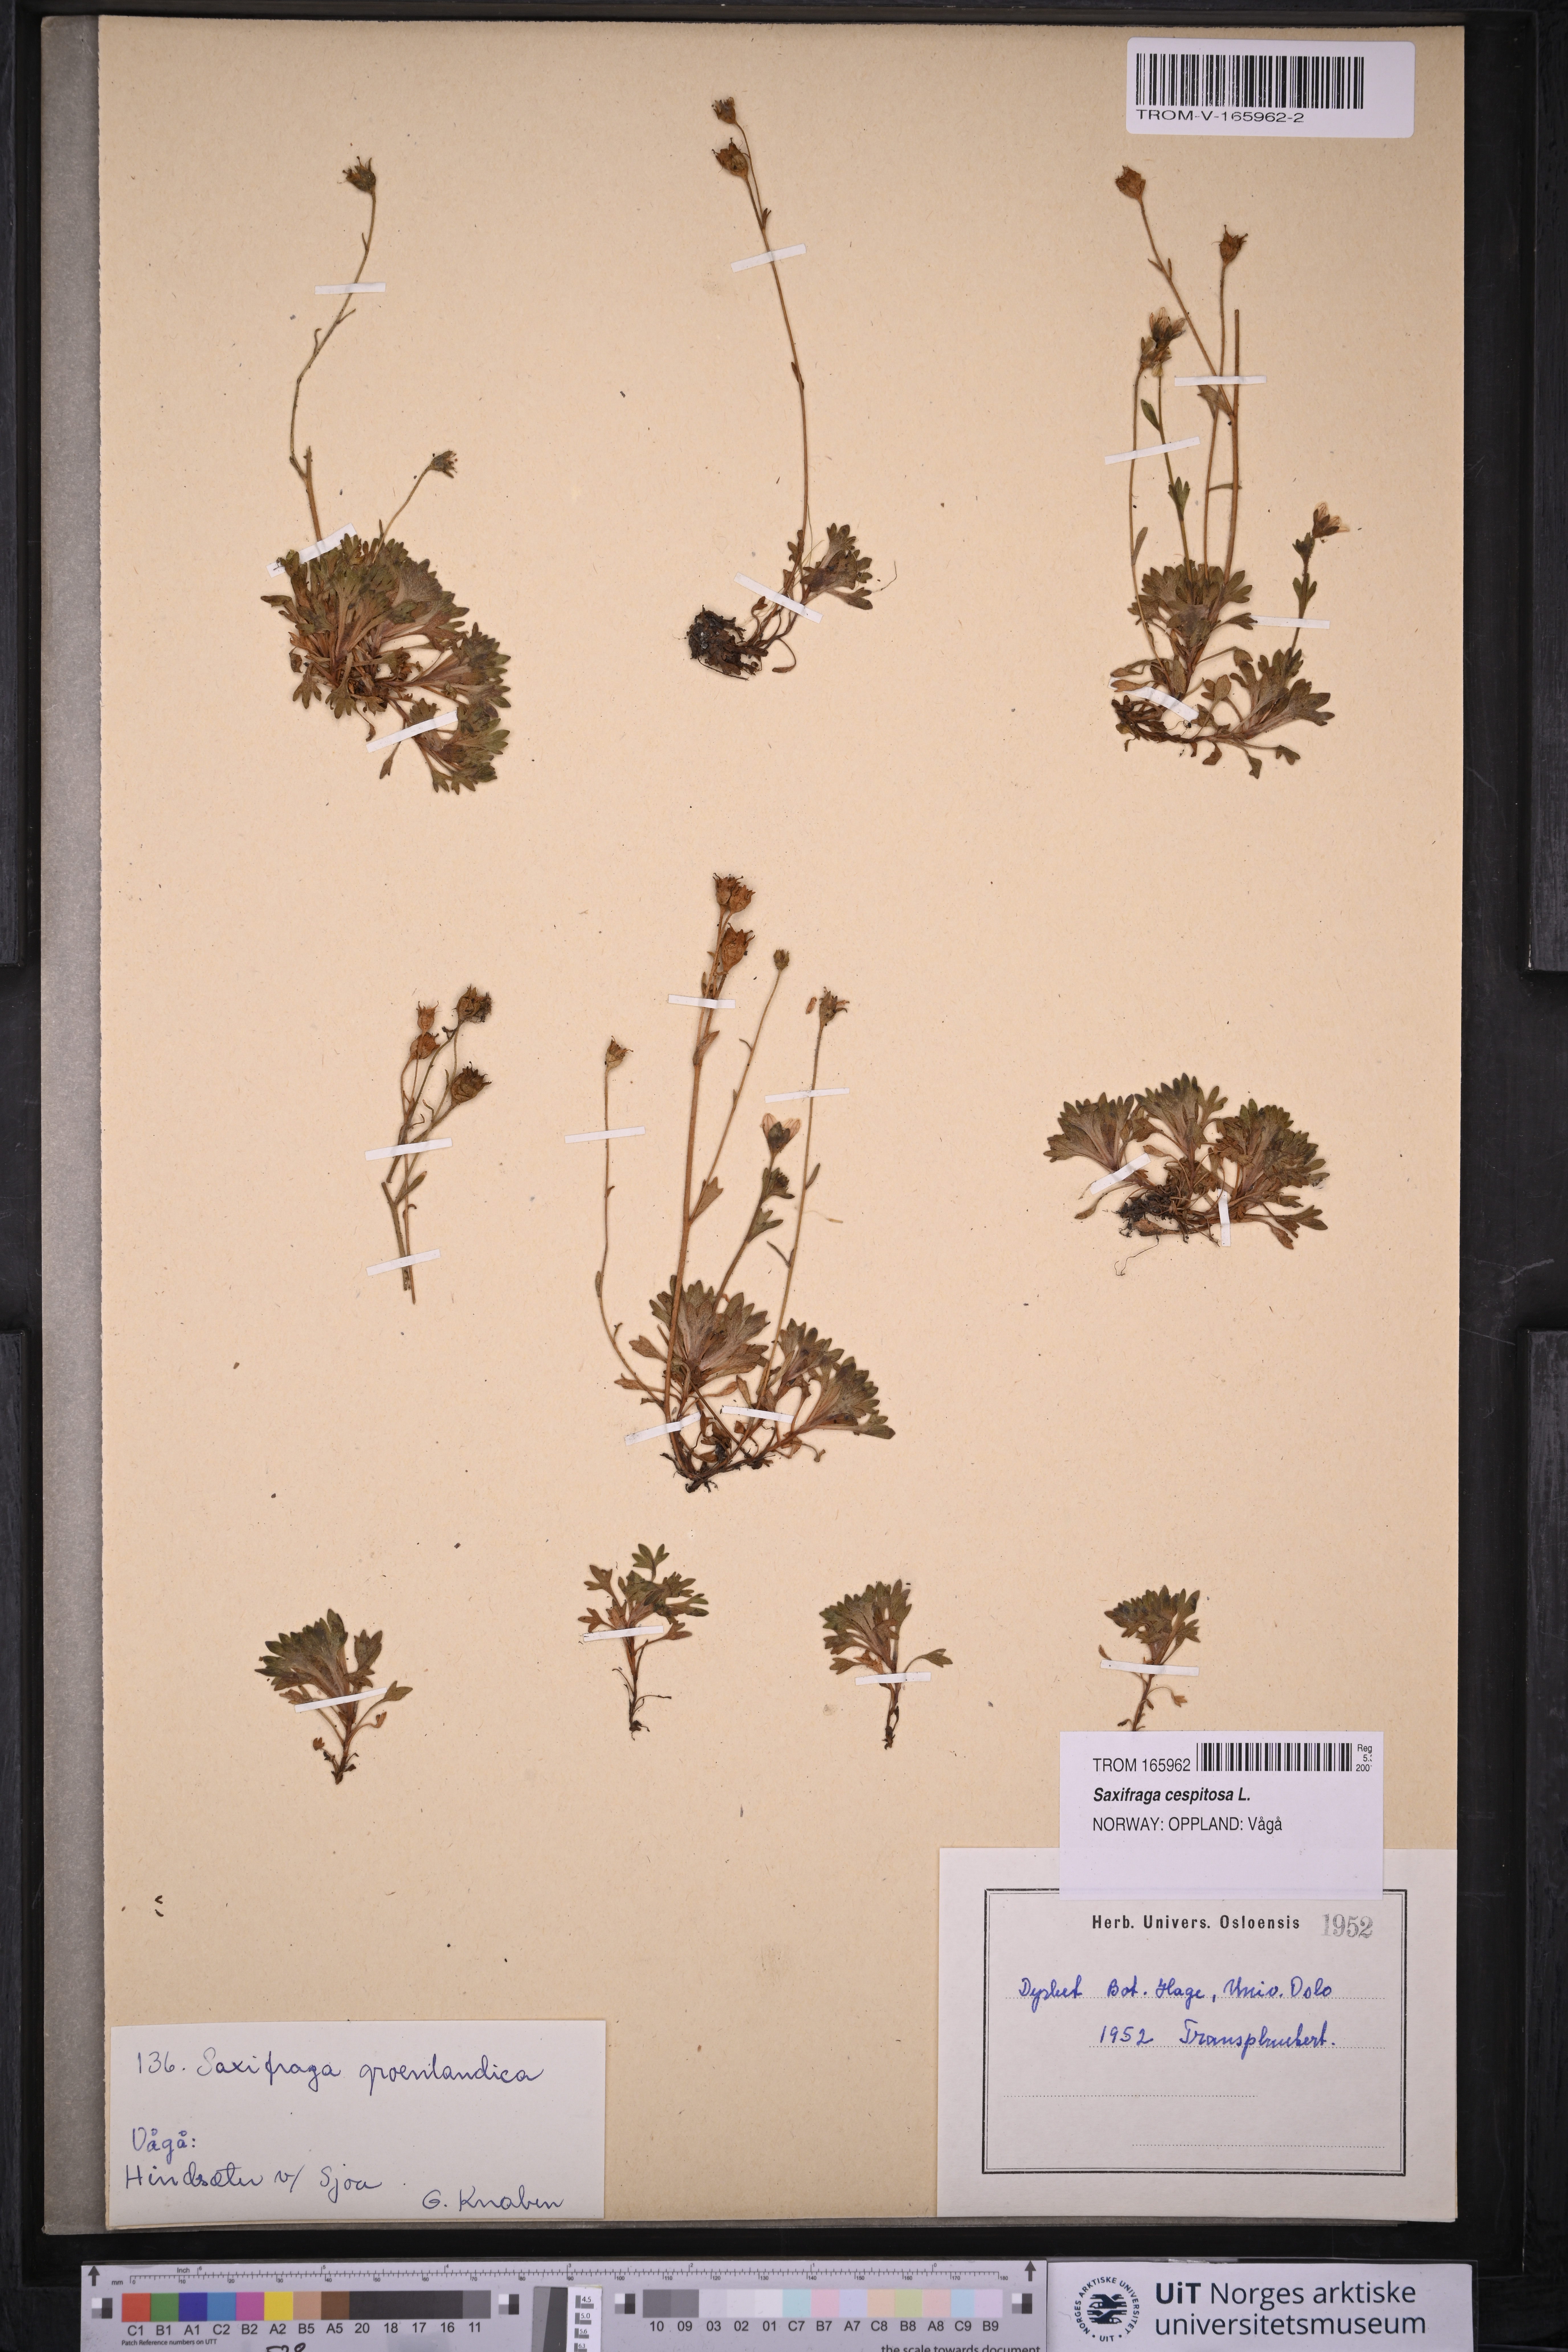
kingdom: Plantae
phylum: Tracheophyta
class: Magnoliopsida
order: Saxifragales
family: Saxifragaceae
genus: Saxifraga
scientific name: Saxifraga cespitosa
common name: Tufted saxifrage
